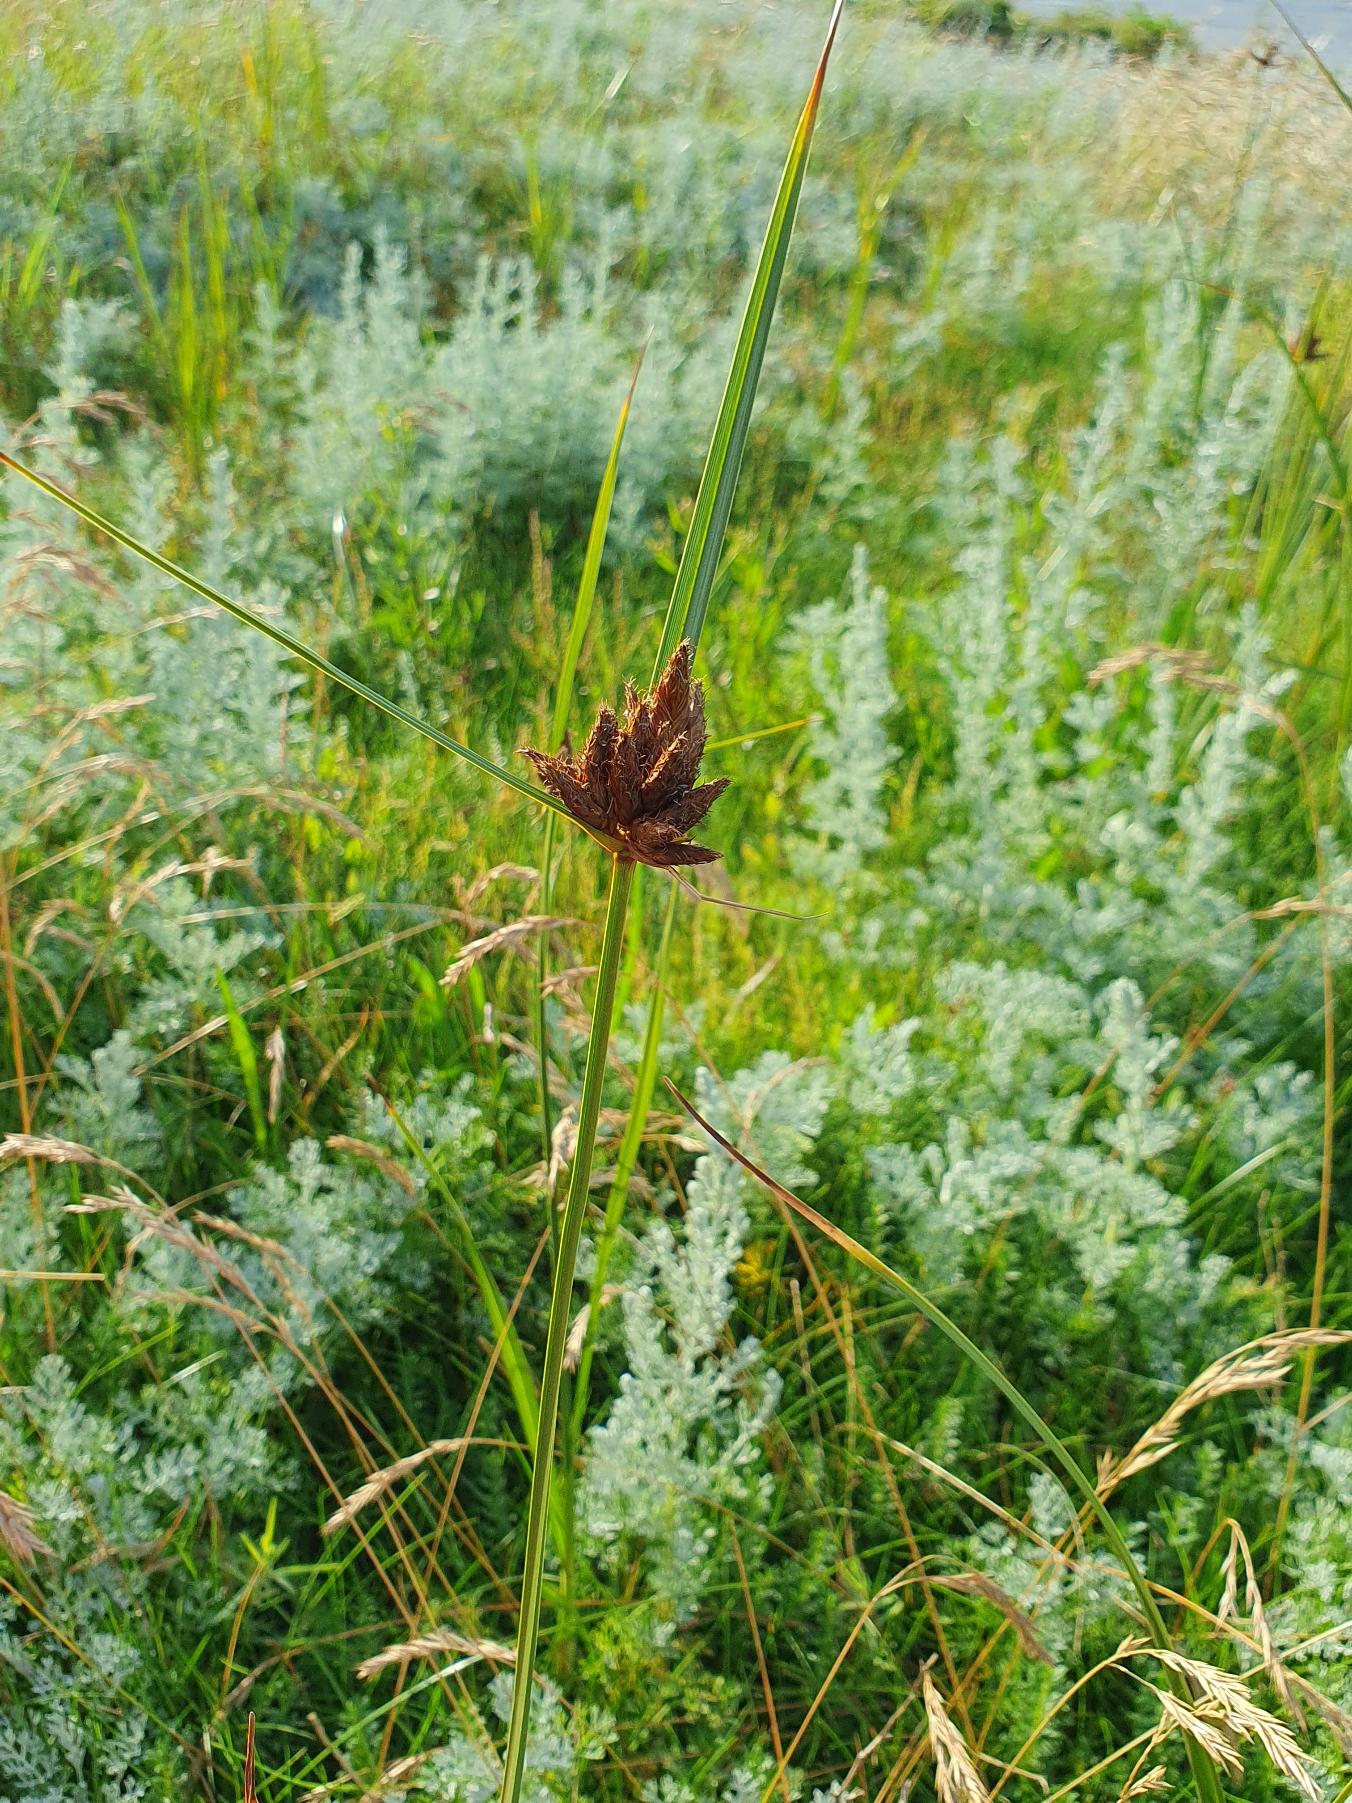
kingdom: Plantae
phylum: Tracheophyta
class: Liliopsida
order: Poales
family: Cyperaceae
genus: Bolboschoenus
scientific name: Bolboschoenus maritimus
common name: Strand-kogleaks
